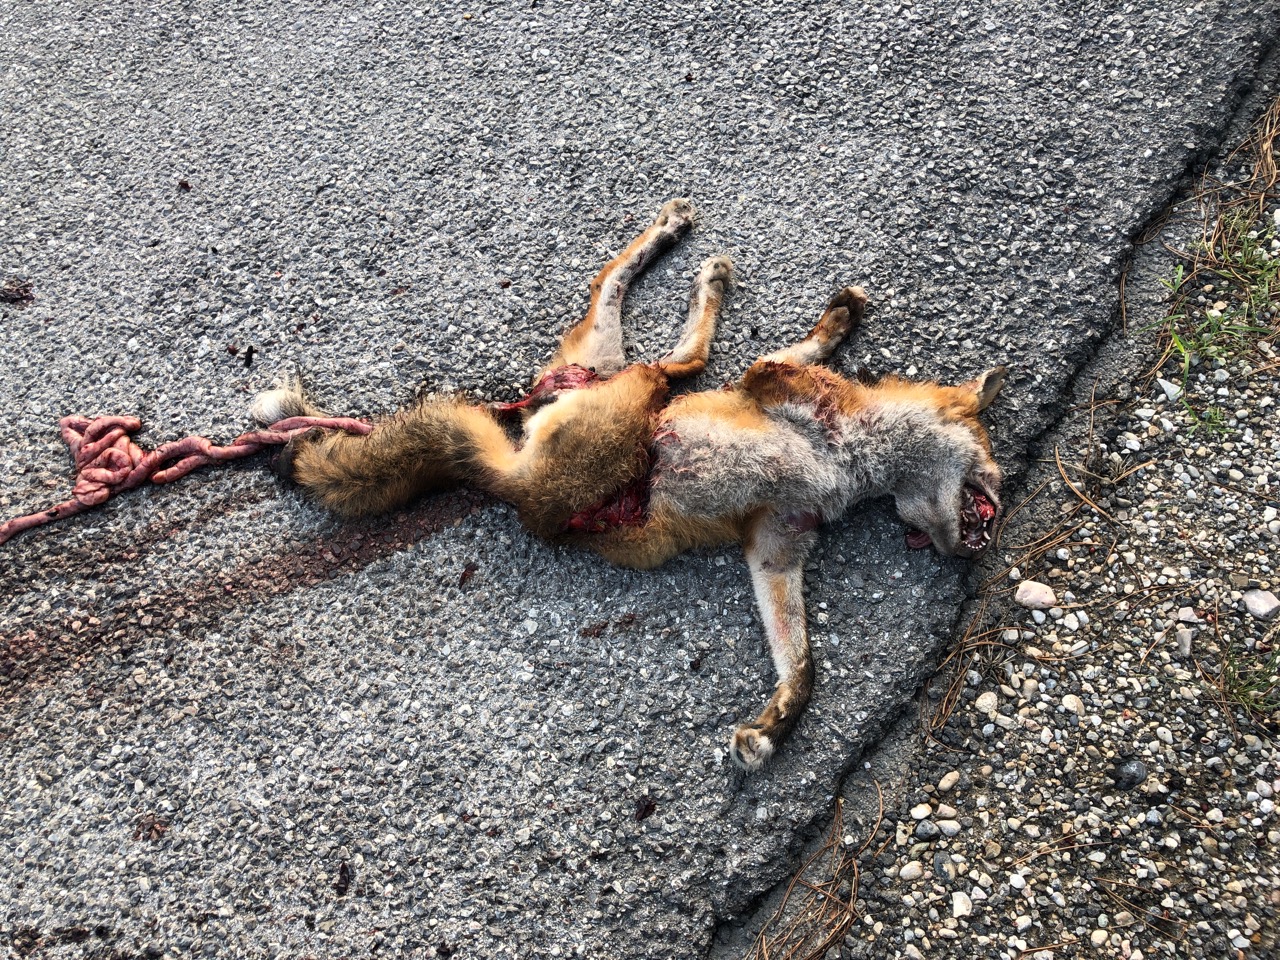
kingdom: Animalia
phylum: Chordata
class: Mammalia
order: Carnivora
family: Canidae
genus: Vulpes
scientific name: Vulpes vulpes
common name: Red fox
